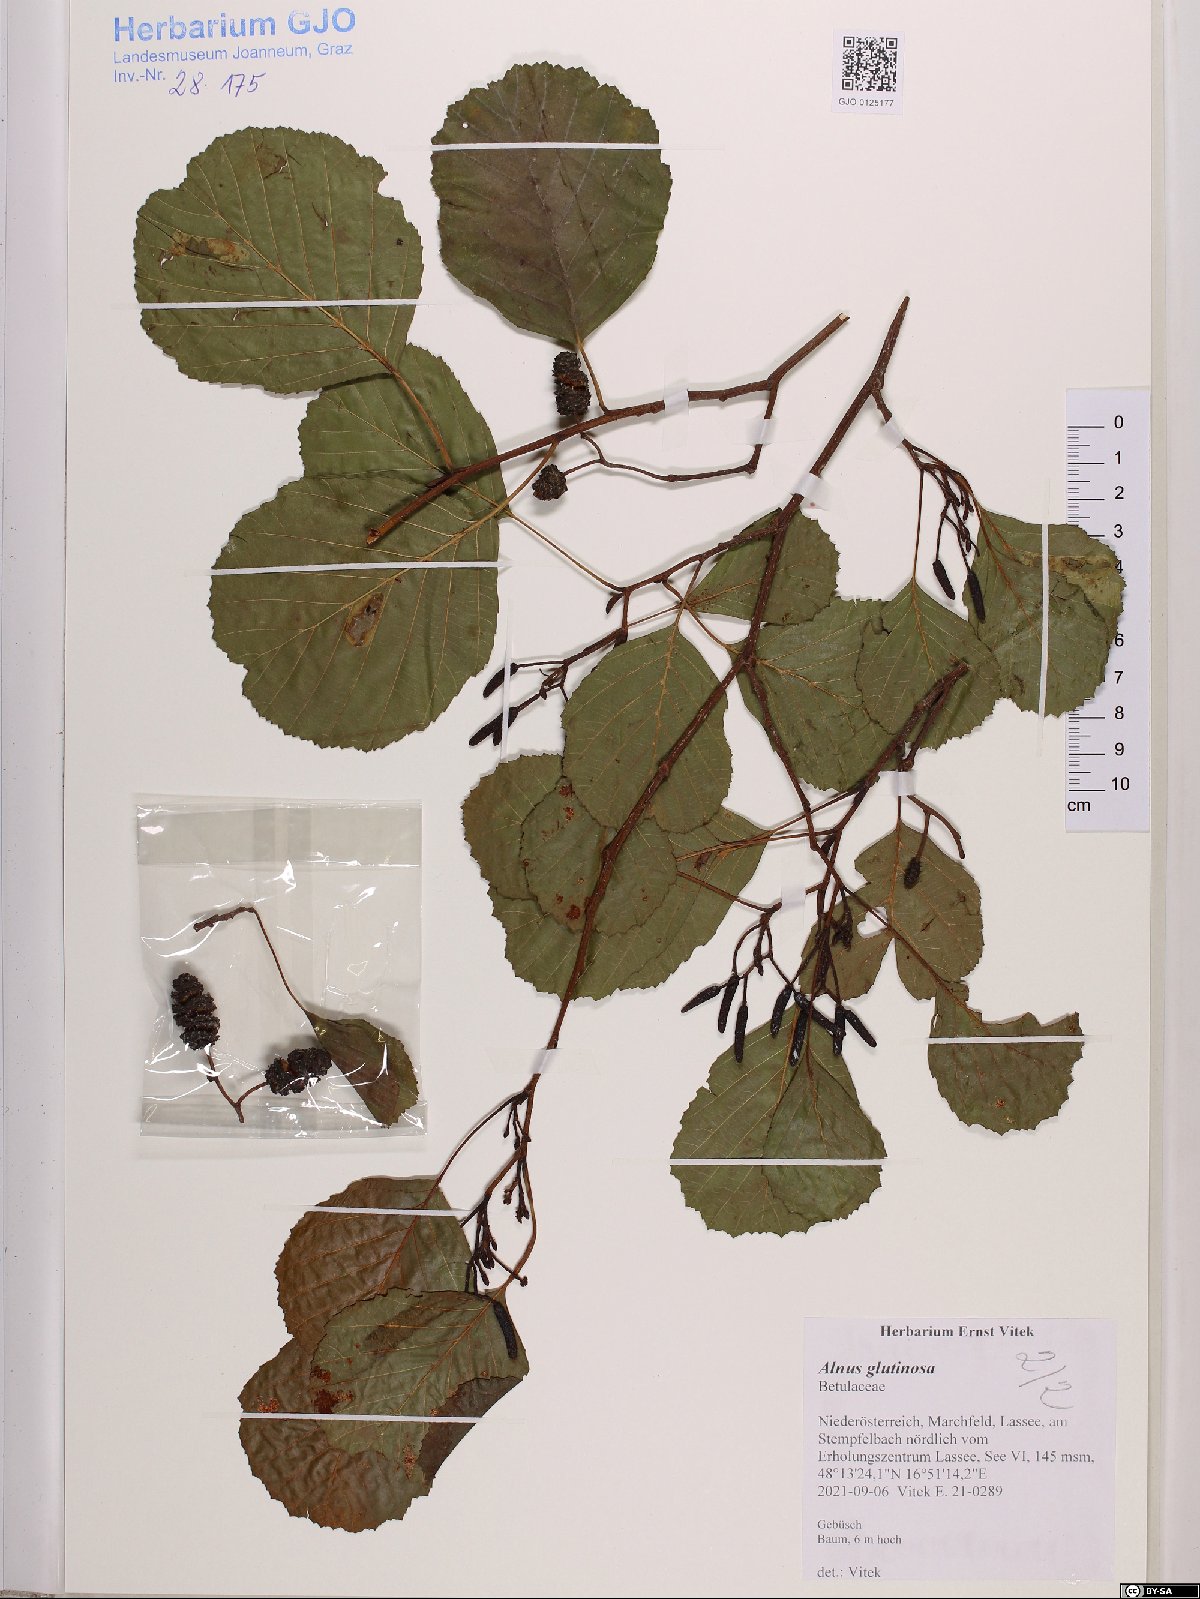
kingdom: Plantae
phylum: Tracheophyta
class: Magnoliopsida
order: Fagales
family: Betulaceae
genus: Alnus
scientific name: Alnus glutinosa
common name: Black alder
